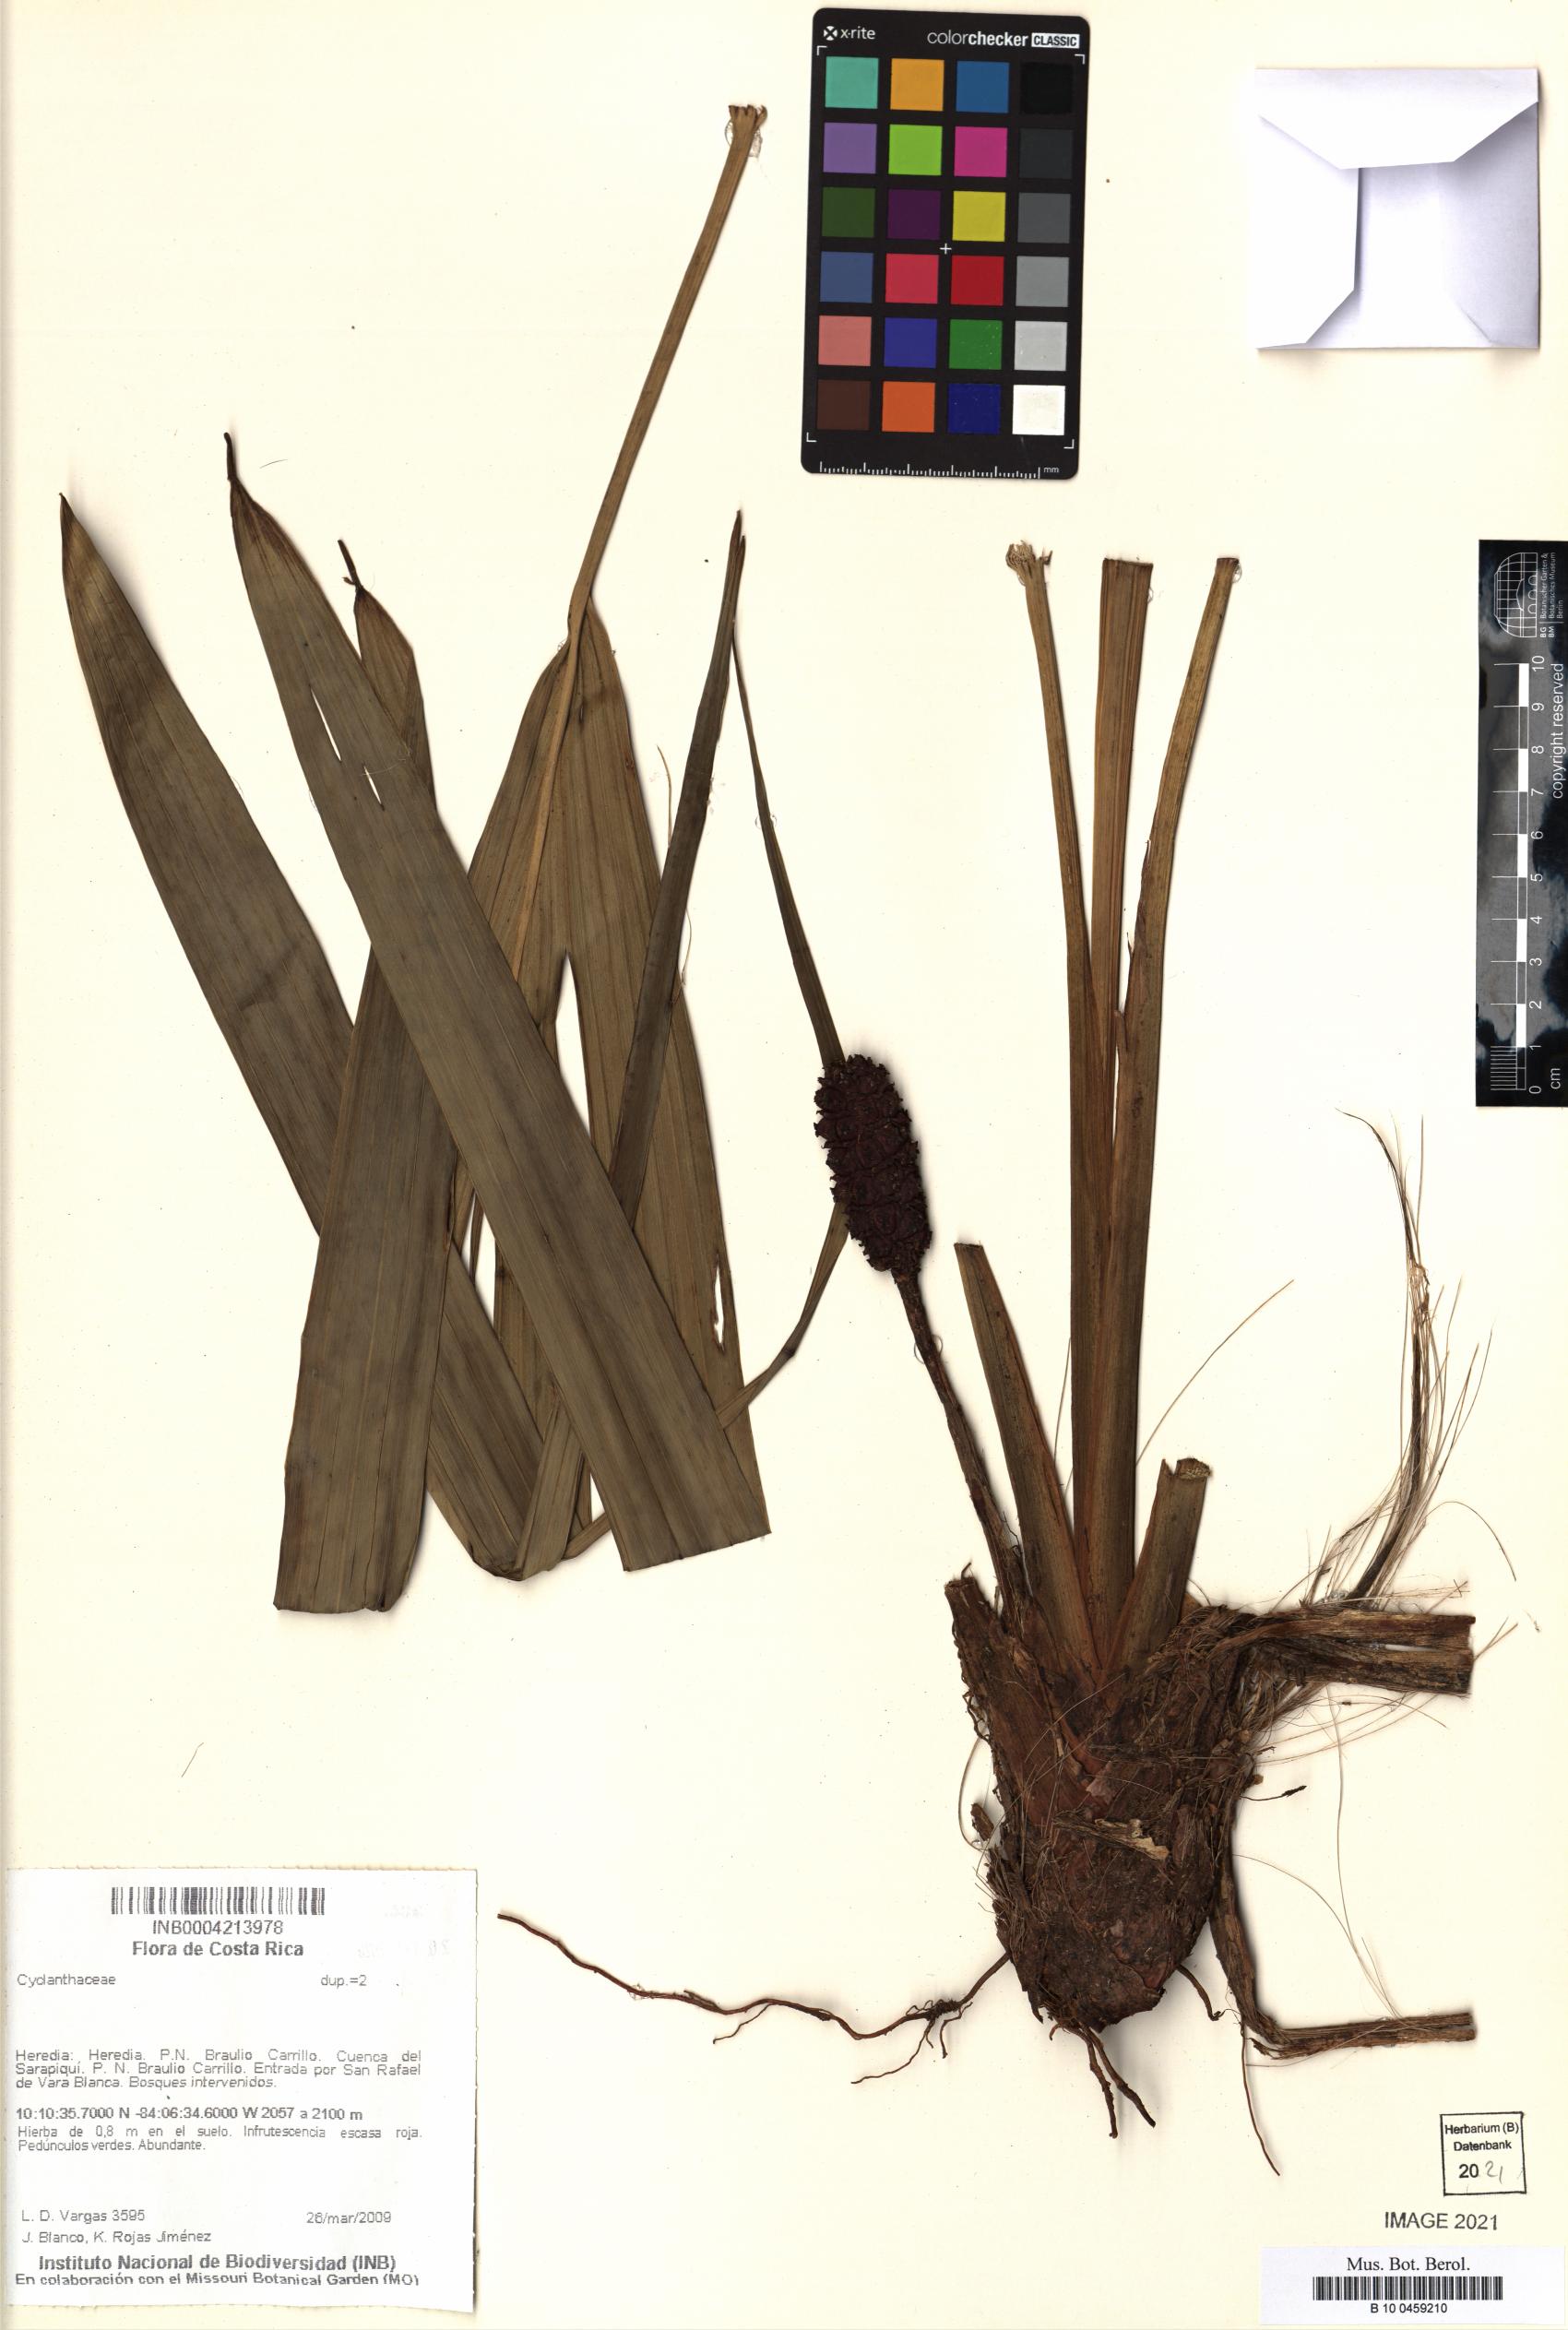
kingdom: Plantae
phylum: Tracheophyta
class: Liliopsida
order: Pandanales
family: Cyclanthaceae
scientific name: Cyclanthaceae
